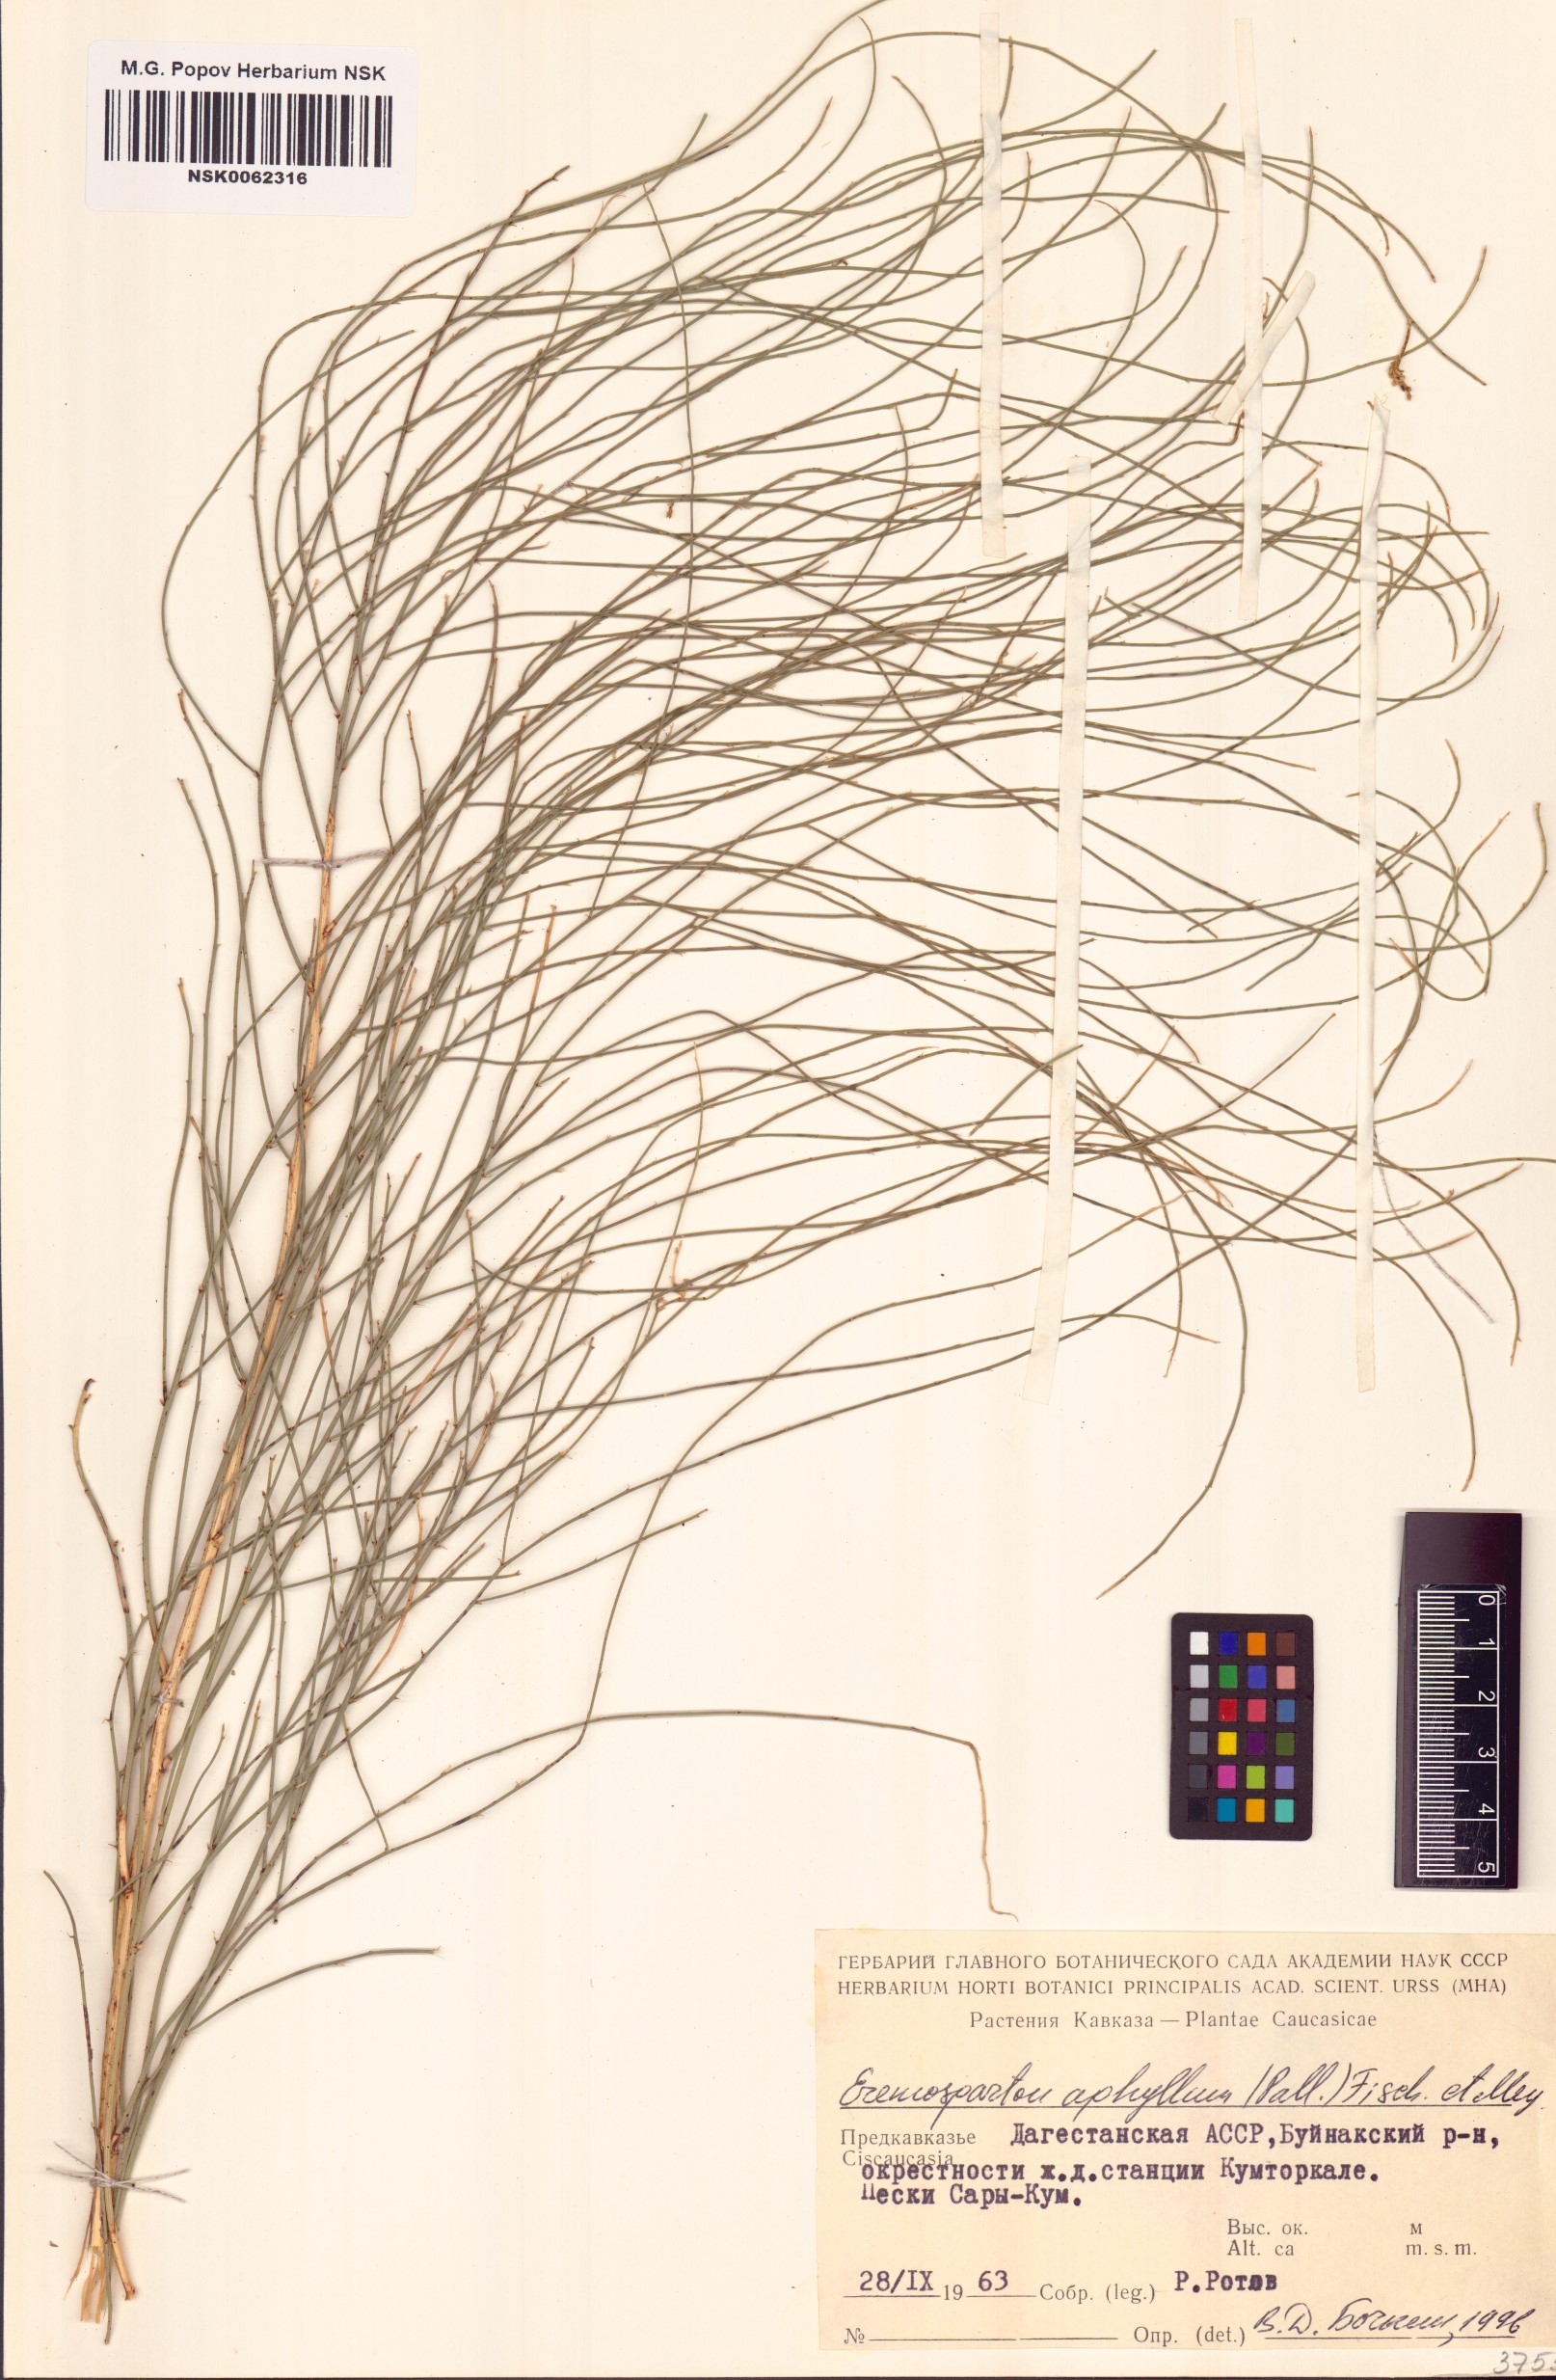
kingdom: Plantae
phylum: Tracheophyta
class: Magnoliopsida
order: Fabales
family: Fabaceae
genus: Eremosparton
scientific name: Eremosparton aphyllum
